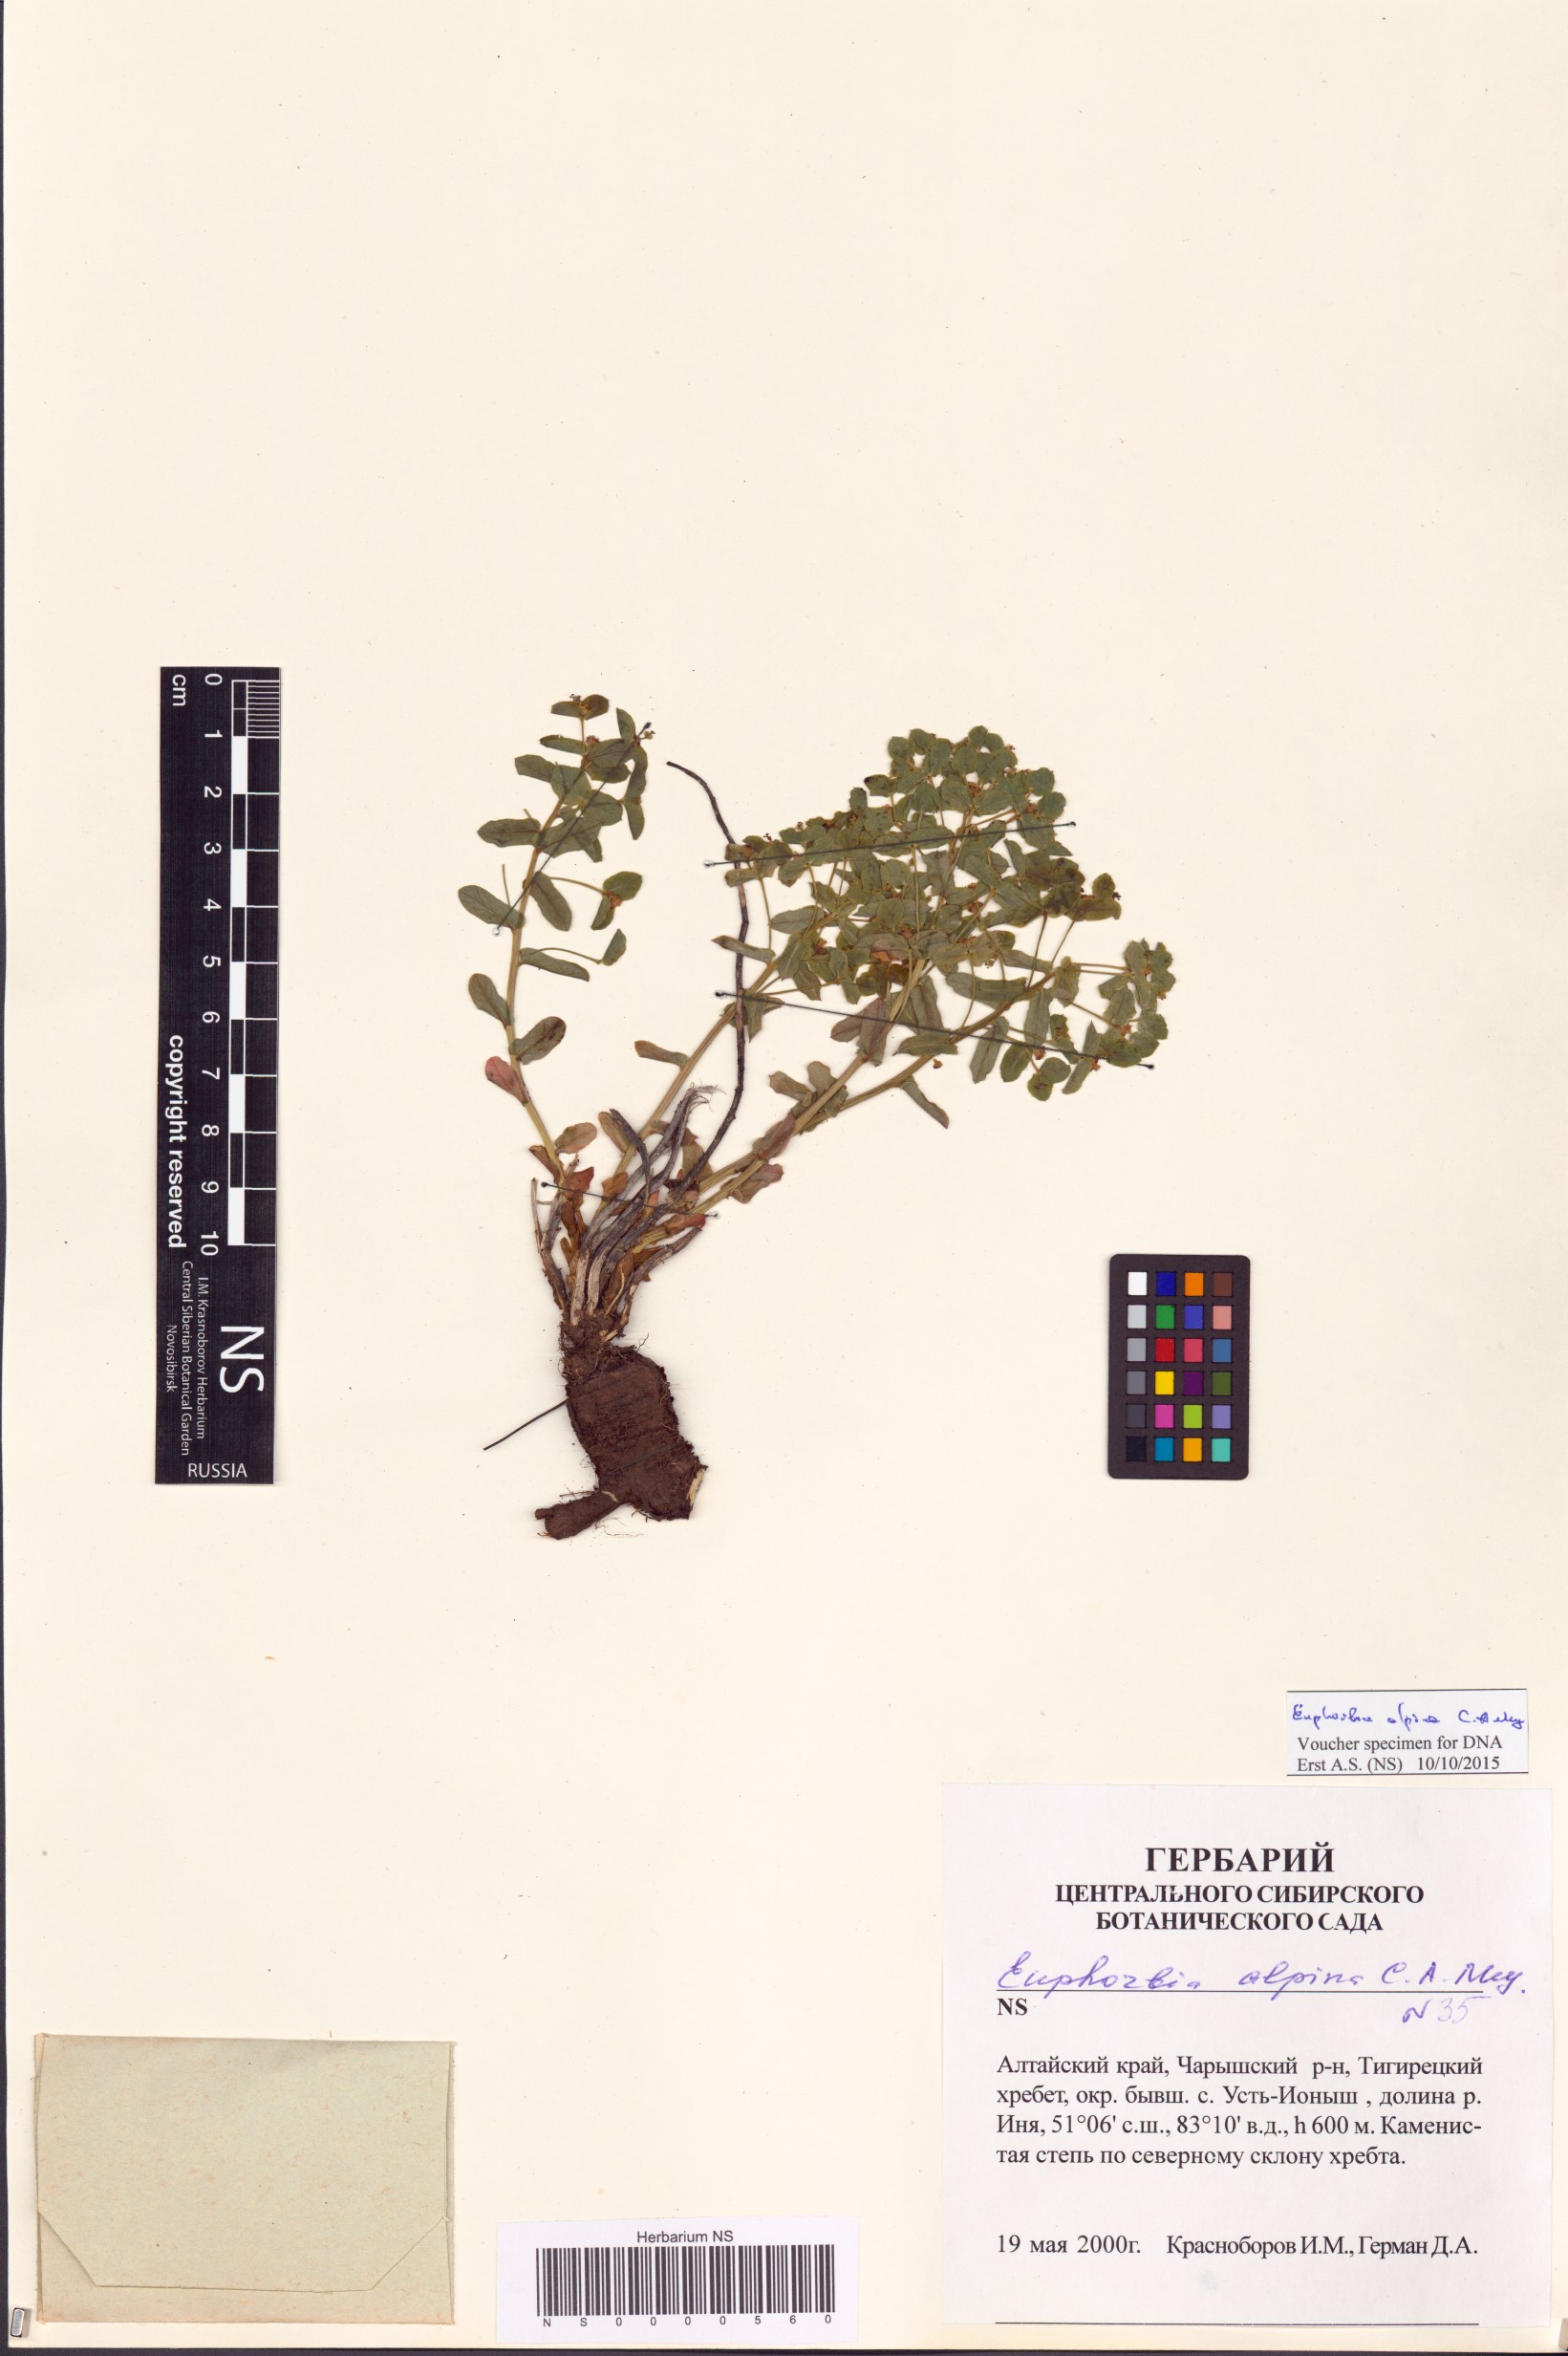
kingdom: Plantae
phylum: Tracheophyta
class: Magnoliopsida
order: Malpighiales
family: Euphorbiaceae
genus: Euphorbia
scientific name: Euphorbia alpina
